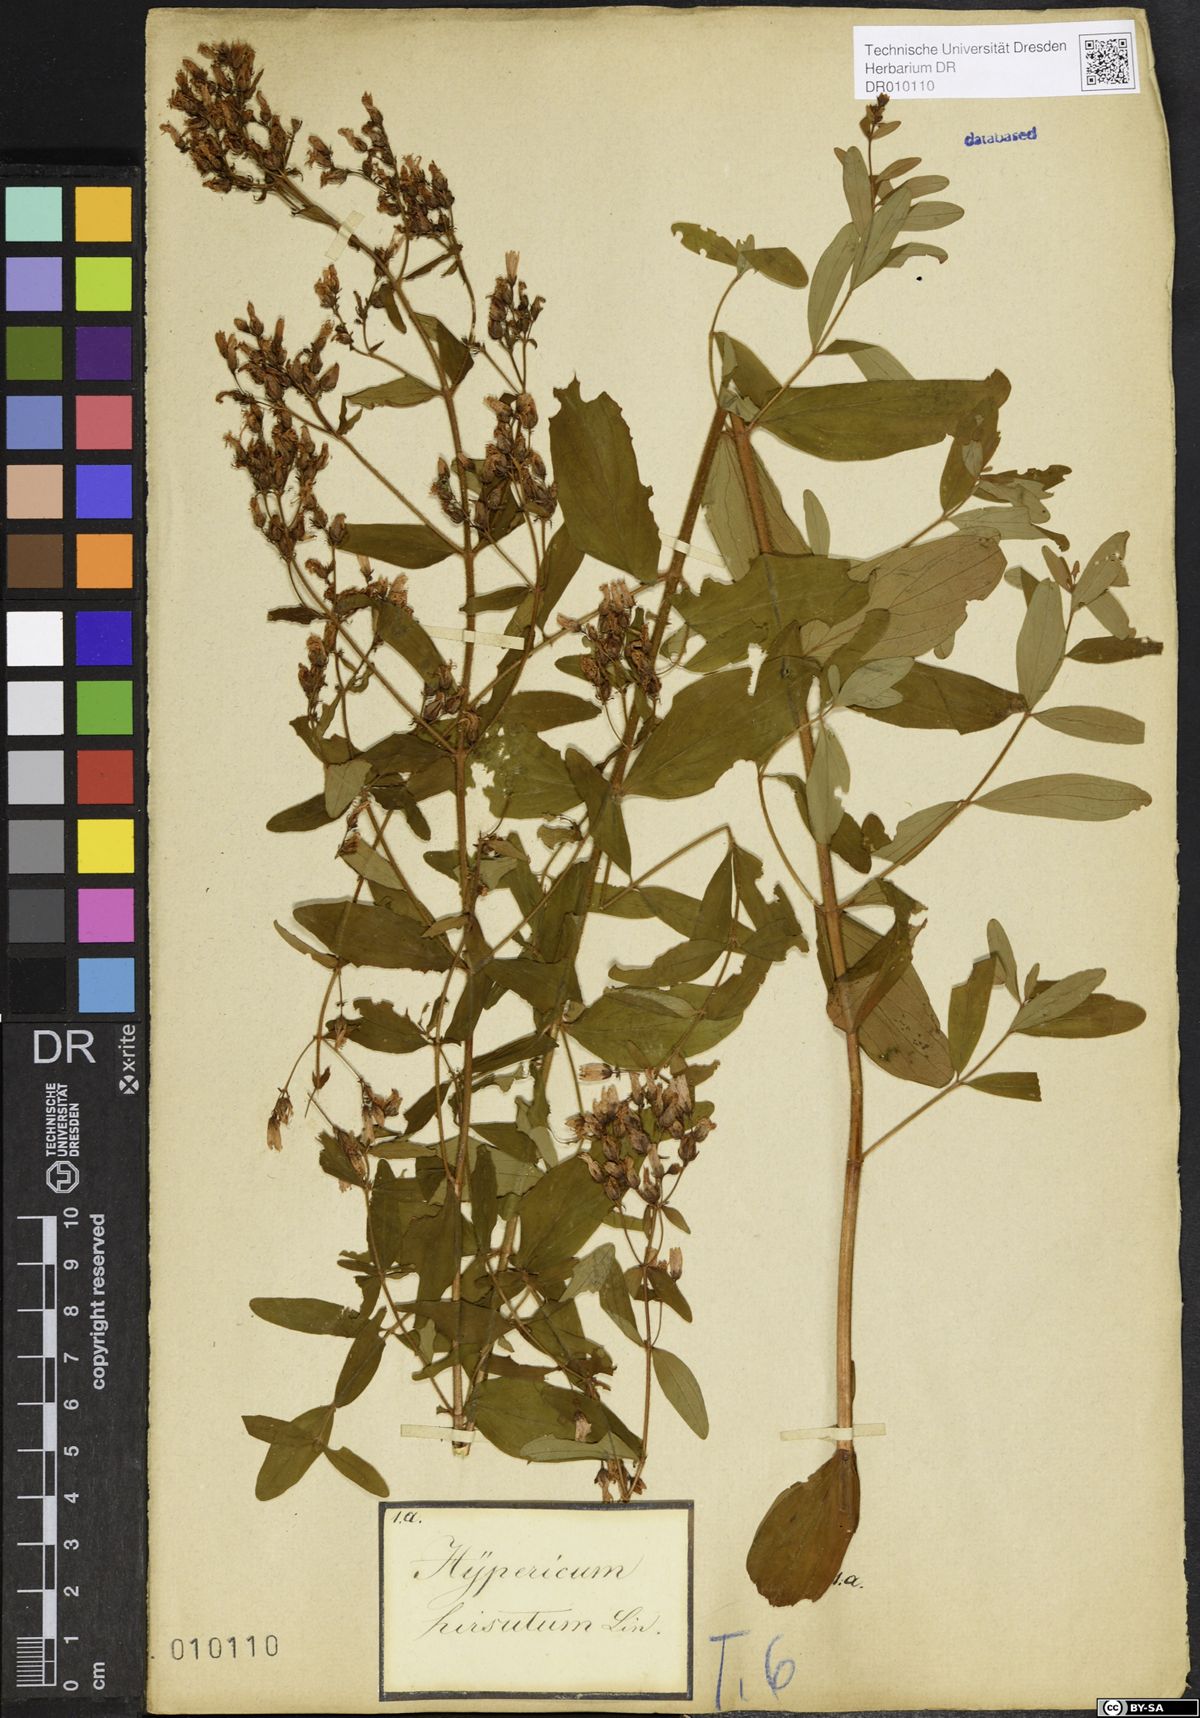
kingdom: Plantae
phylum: Tracheophyta
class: Magnoliopsida
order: Malpighiales
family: Hypericaceae
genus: Hypericum
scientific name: Hypericum hirsutum
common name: Hairy st. john's-wort
